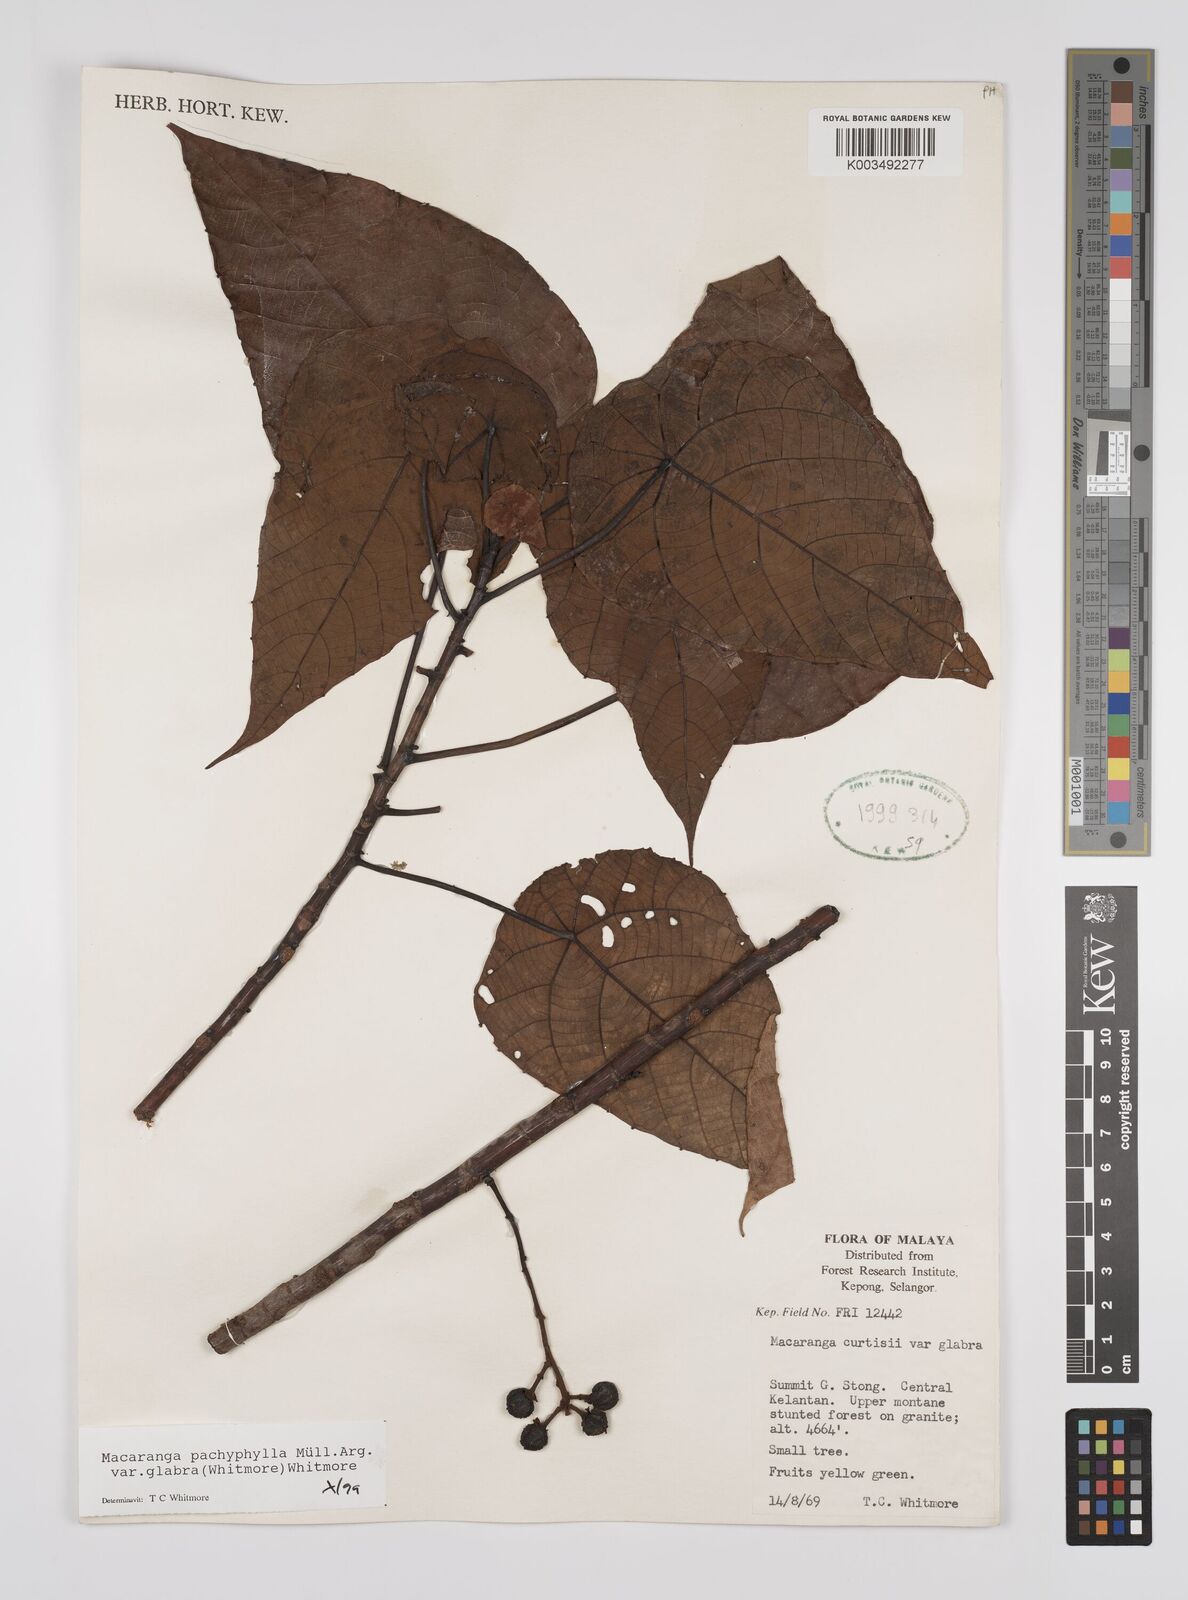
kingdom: Plantae
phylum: Tracheophyta
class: Magnoliopsida
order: Malpighiales
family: Euphorbiaceae
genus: Macaranga
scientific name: Macaranga pachyphylla
